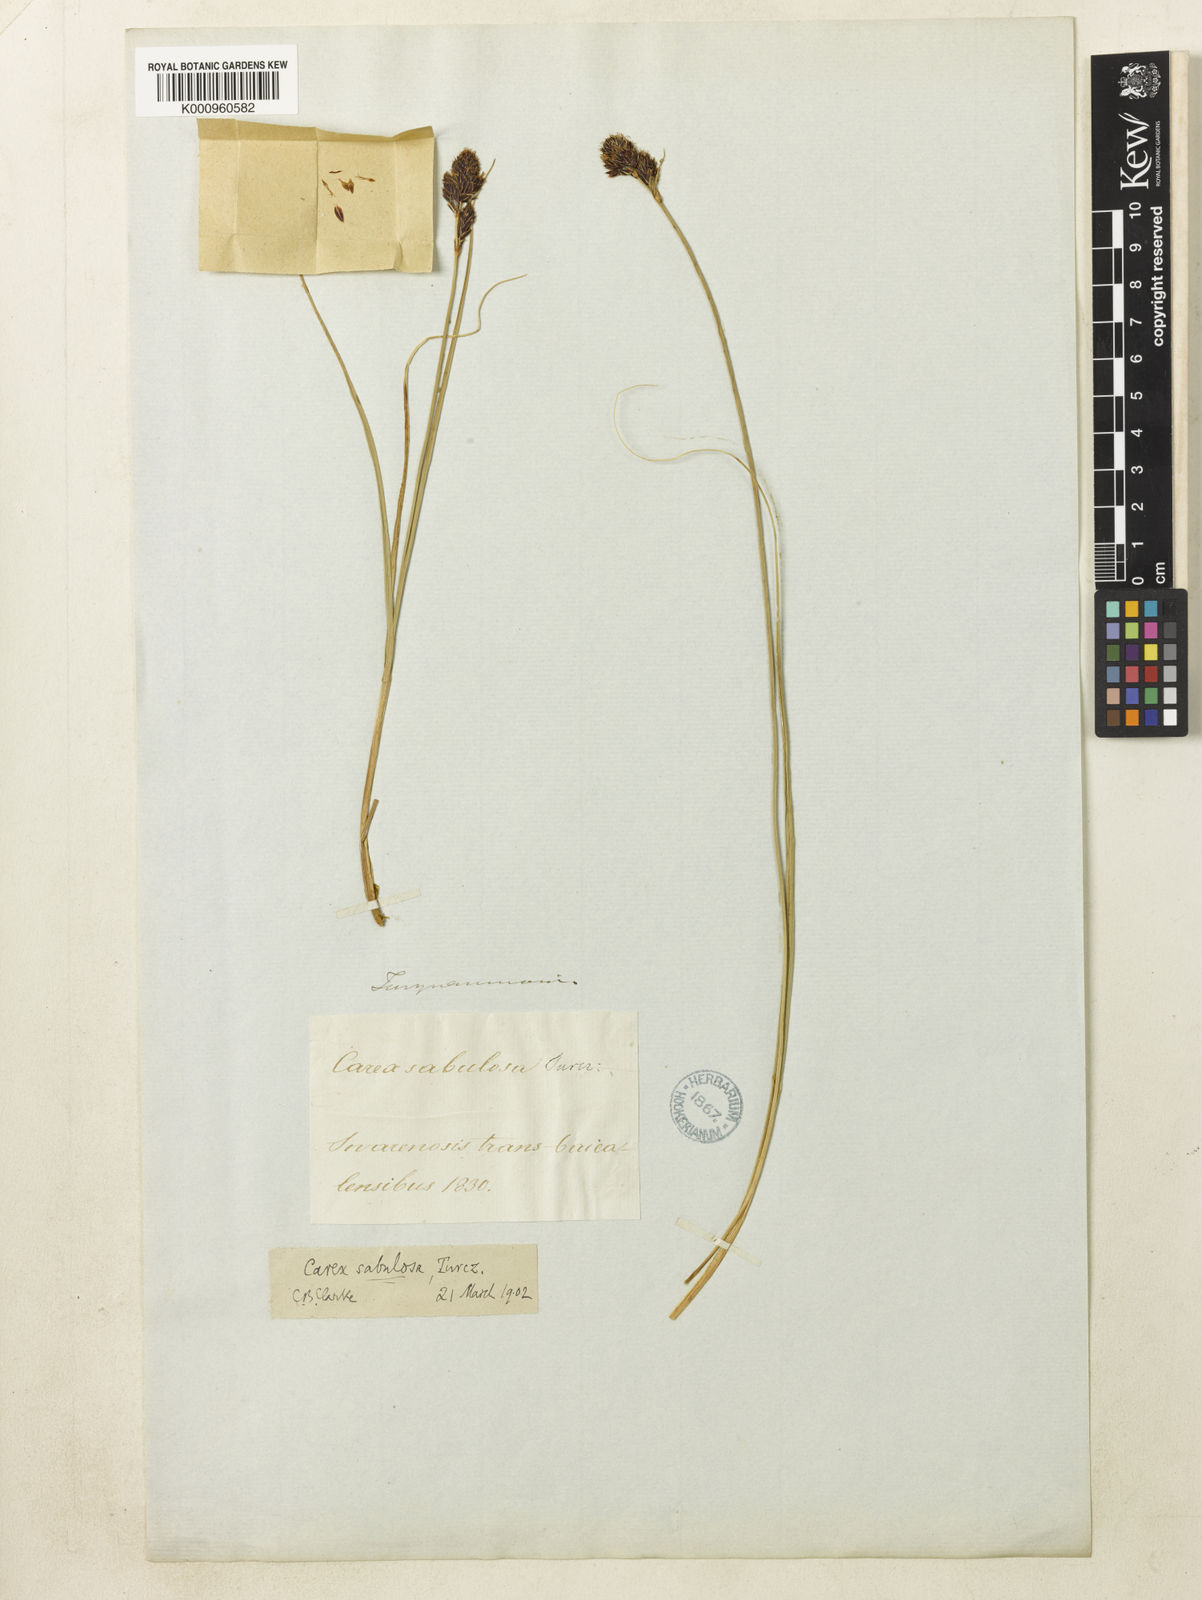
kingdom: Plantae
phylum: Tracheophyta
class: Liliopsida
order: Poales
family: Cyperaceae
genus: Carex
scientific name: Carex melanantha
